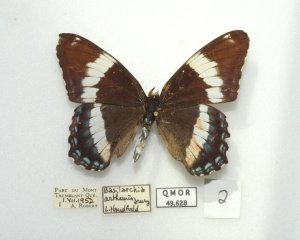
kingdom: Animalia
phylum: Arthropoda
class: Insecta
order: Lepidoptera
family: Nymphalidae
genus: Limenitis
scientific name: Limenitis arthemis
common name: Red-spotted Admiral
